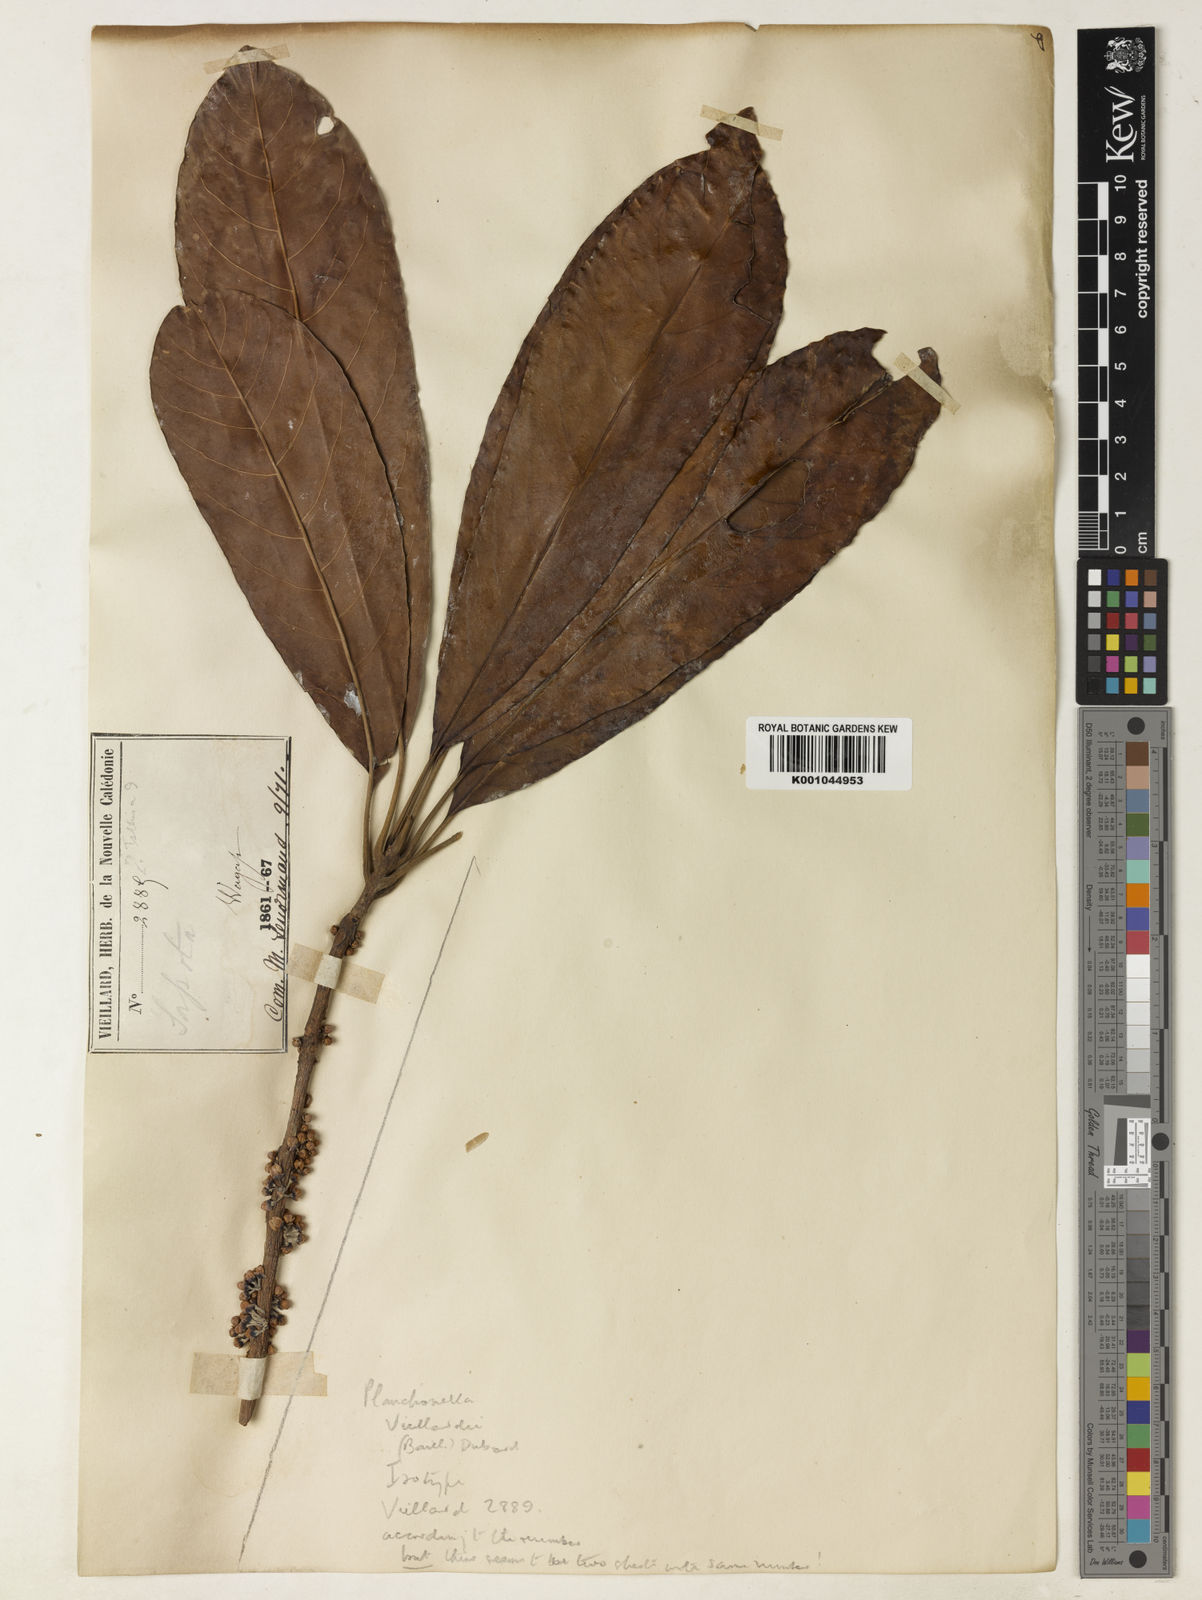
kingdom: Plantae
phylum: Tracheophyta
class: Magnoliopsida
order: Ericales
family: Sapotaceae
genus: Pleioluma
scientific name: Pleioluma vieillardii
